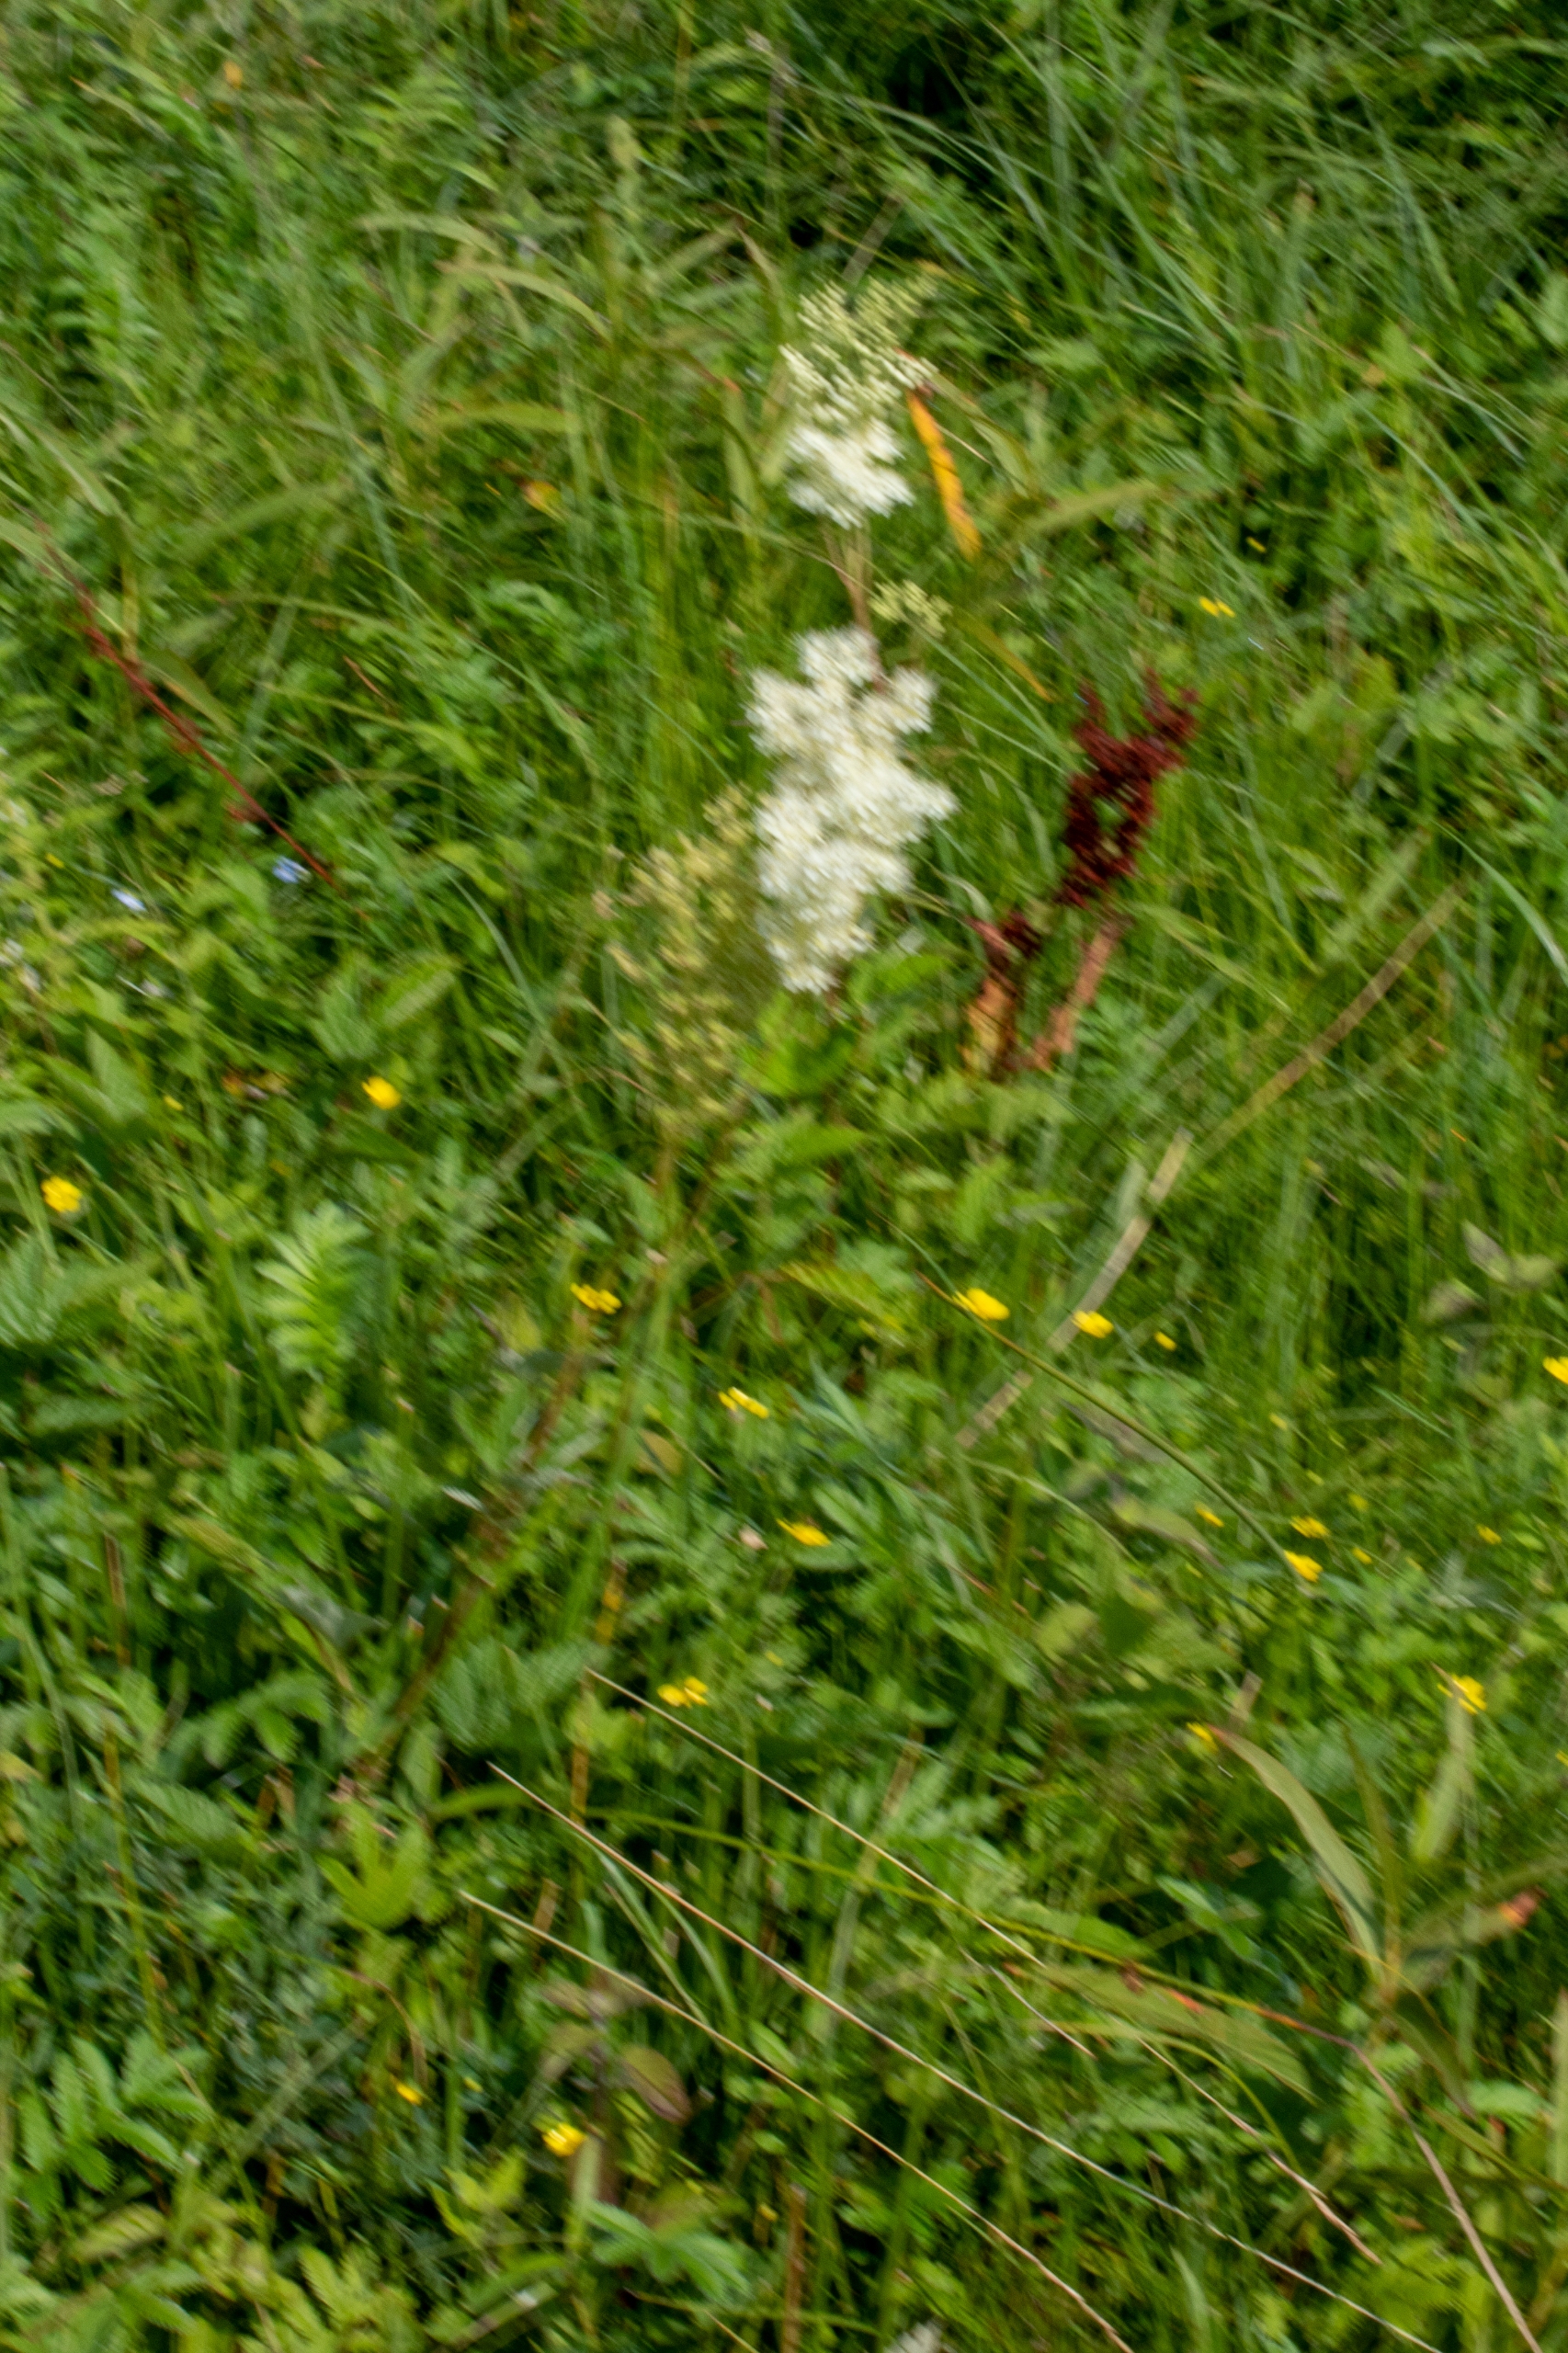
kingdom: Plantae
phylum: Tracheophyta
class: Magnoliopsida
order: Rosales
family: Rosaceae
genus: Filipendula
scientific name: Filipendula ulmaria
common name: Almindelig mjødurt
